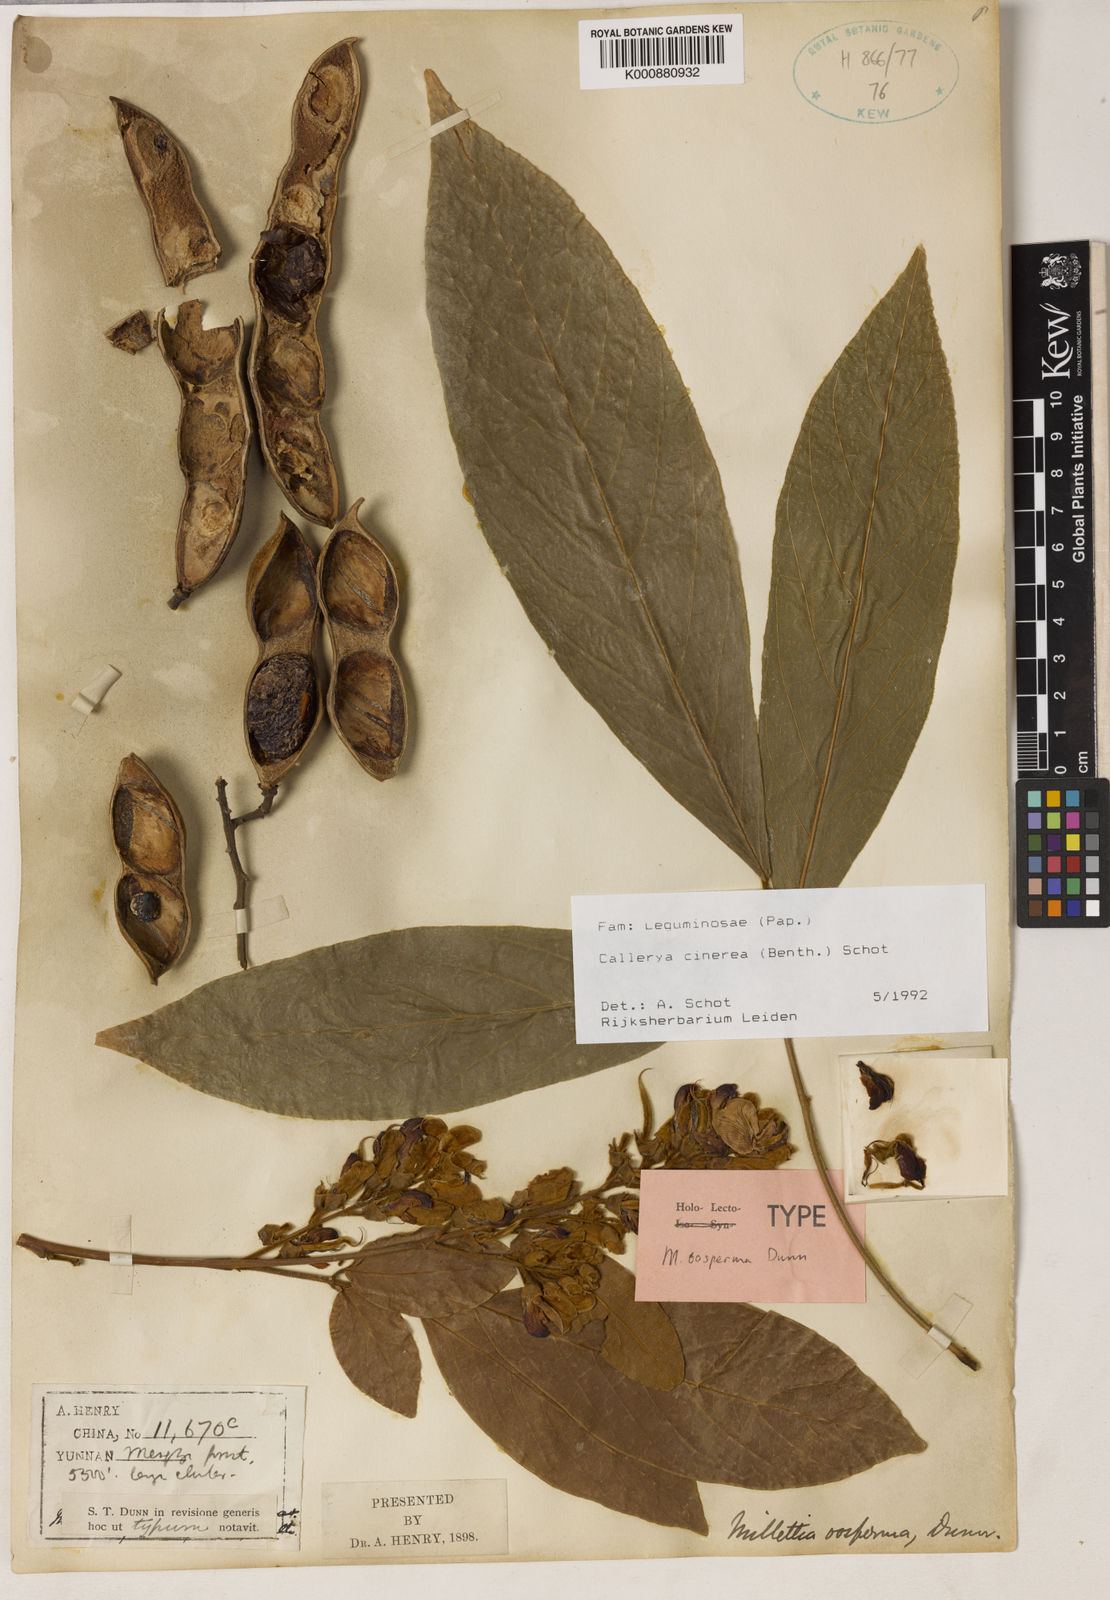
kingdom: Plantae
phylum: Tracheophyta
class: Magnoliopsida
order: Fabales
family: Fabaceae
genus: Callerya
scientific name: Callerya cinerea
